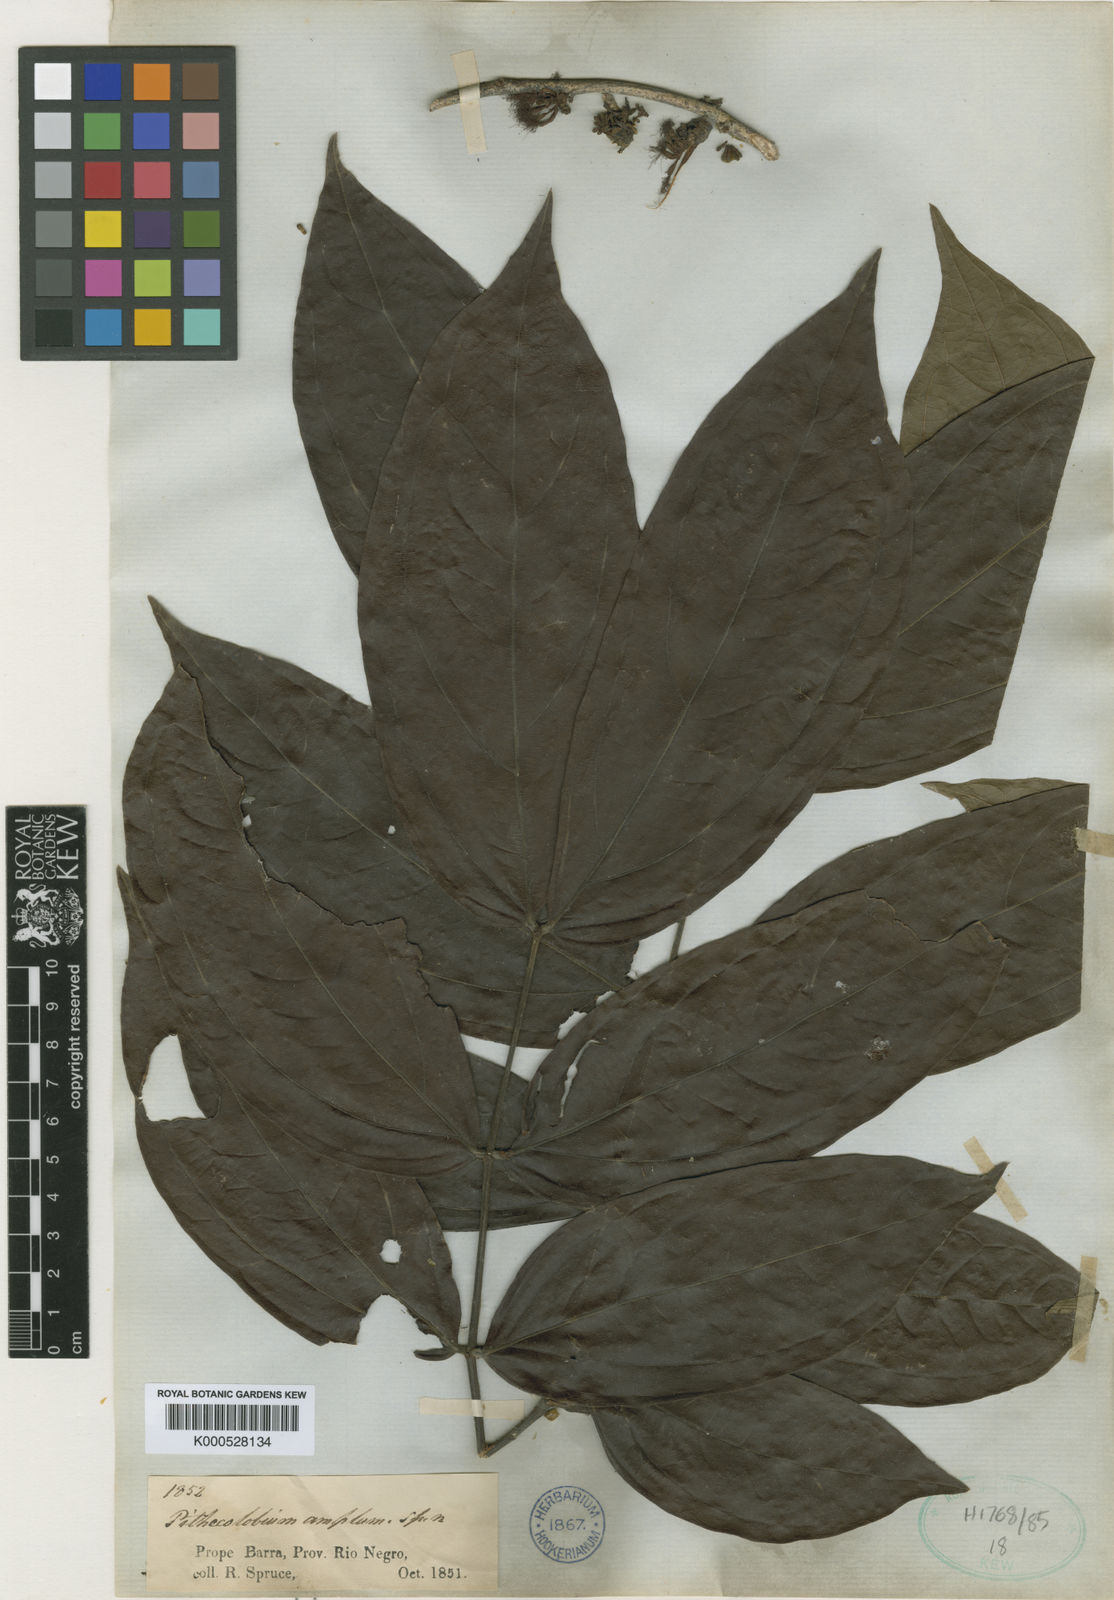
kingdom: Plantae
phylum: Tracheophyta
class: Magnoliopsida
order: Fabales
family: Fabaceae
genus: Zygia
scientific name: Zygia ampla
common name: Jarendeua de sapo
